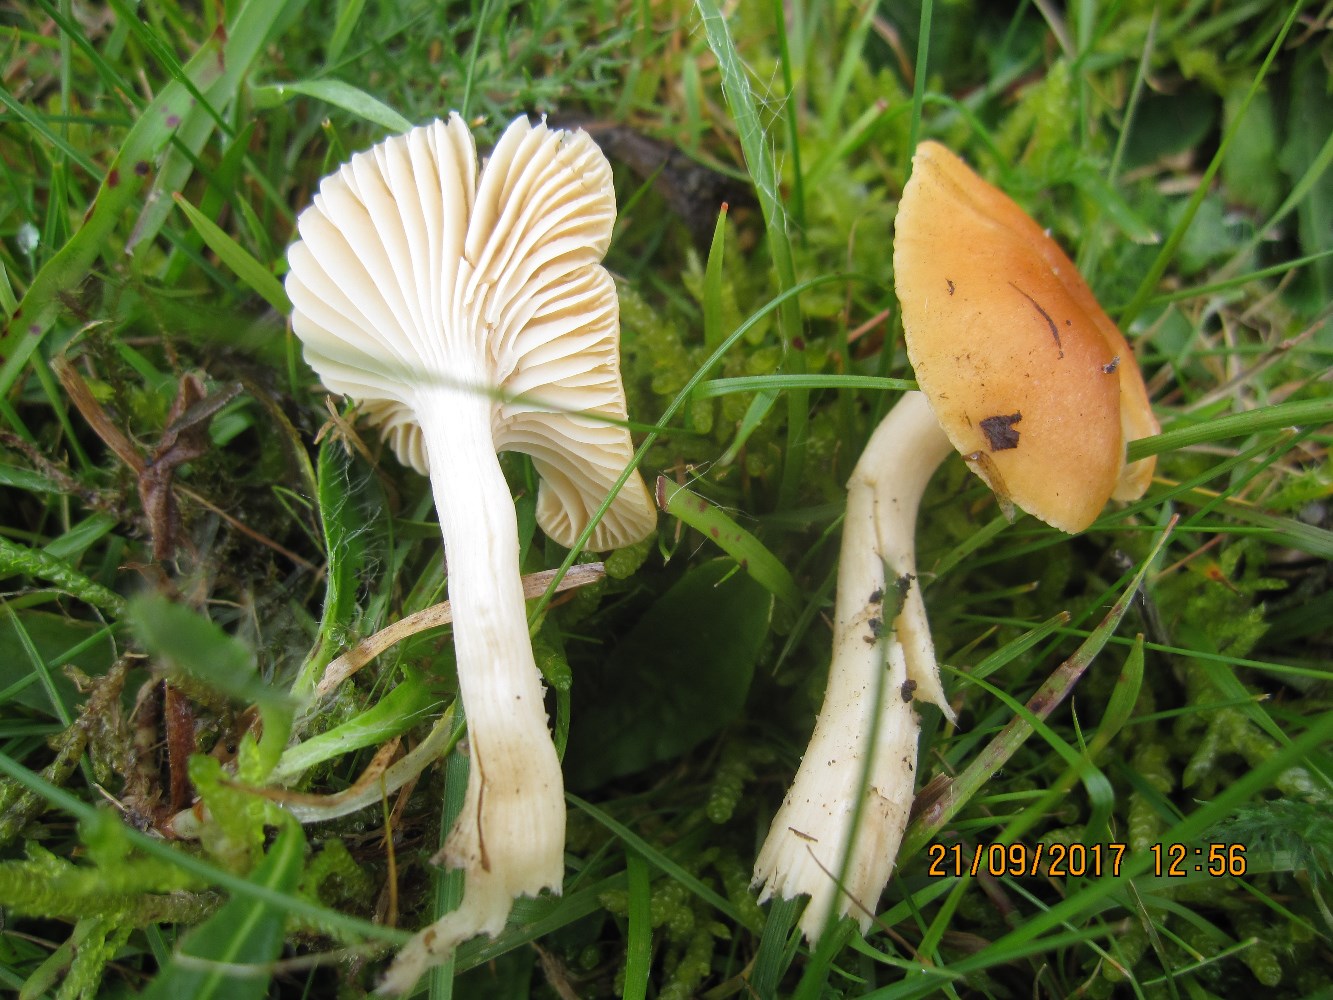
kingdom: Fungi
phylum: Basidiomycota
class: Agaricomycetes
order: Agaricales
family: Hygrophoraceae
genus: Cuphophyllus
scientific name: Cuphophyllus pratensis
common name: eng-vokshat
